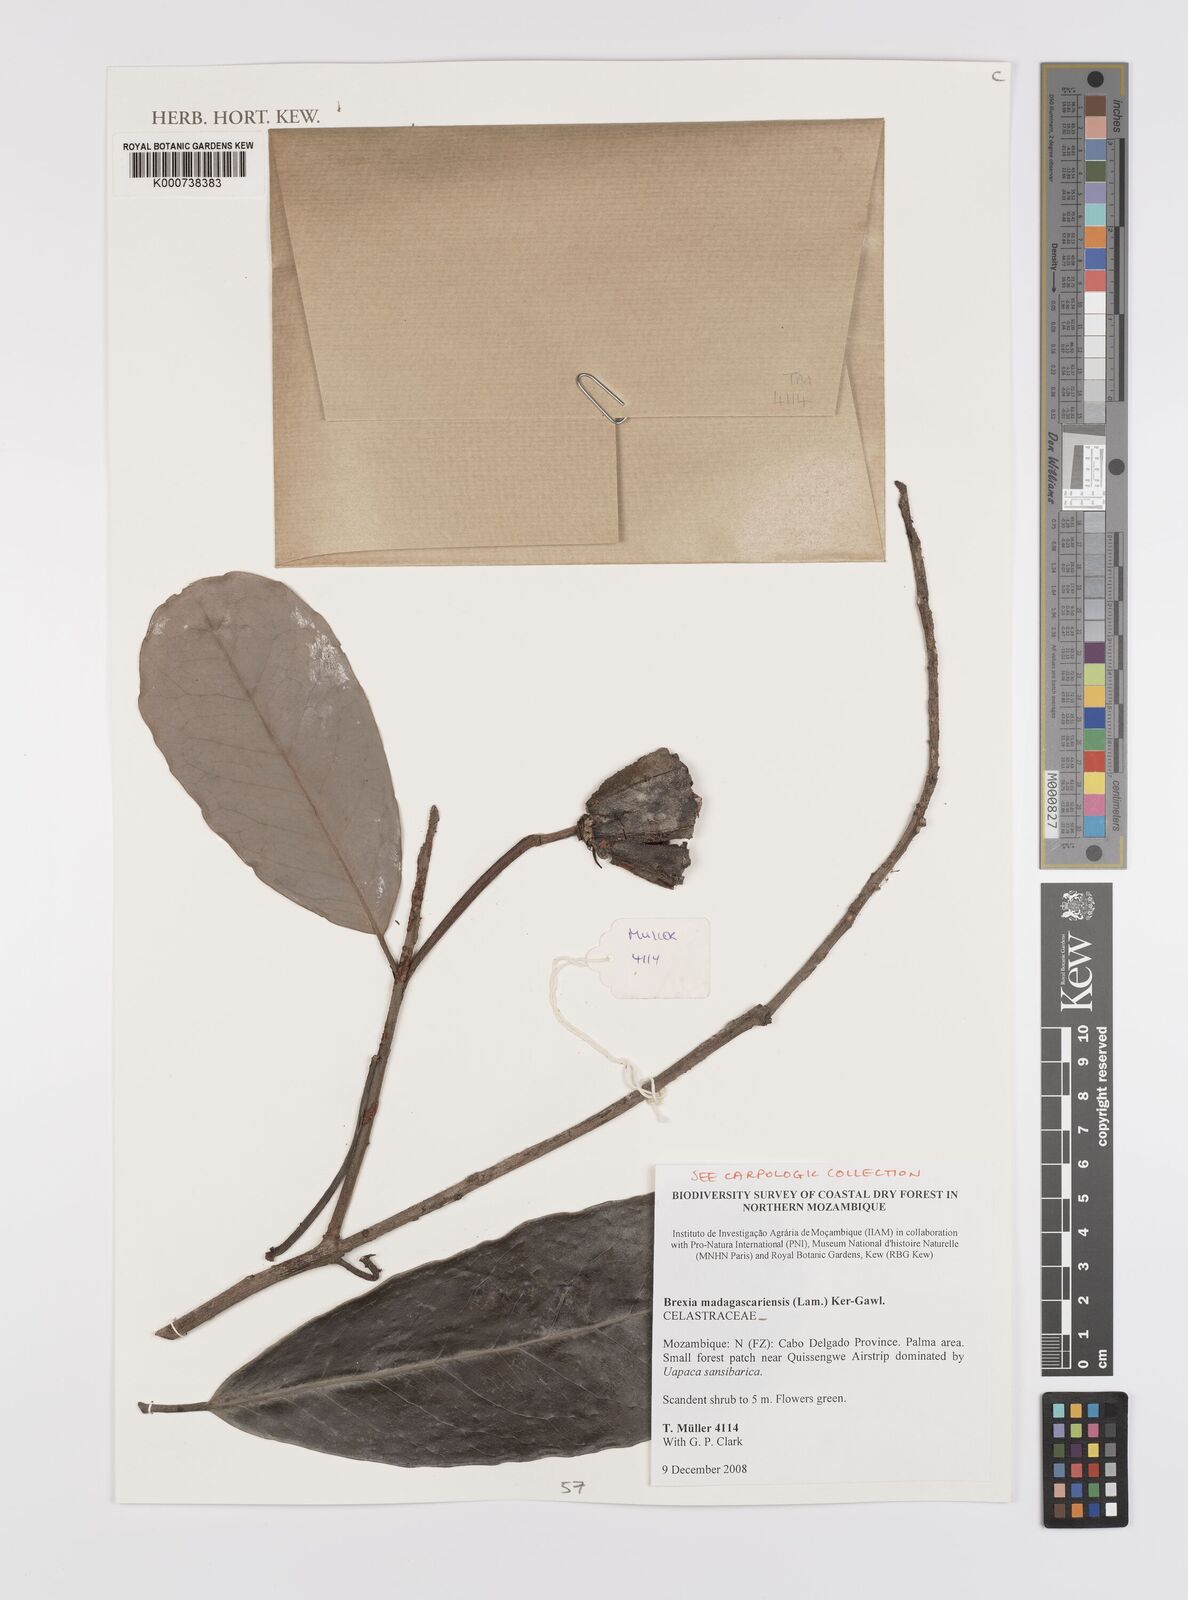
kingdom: Plantae
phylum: Tracheophyta
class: Magnoliopsida
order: Celastrales
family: Celastraceae
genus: Brexia
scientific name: Brexia madagascariensis
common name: Brexia
